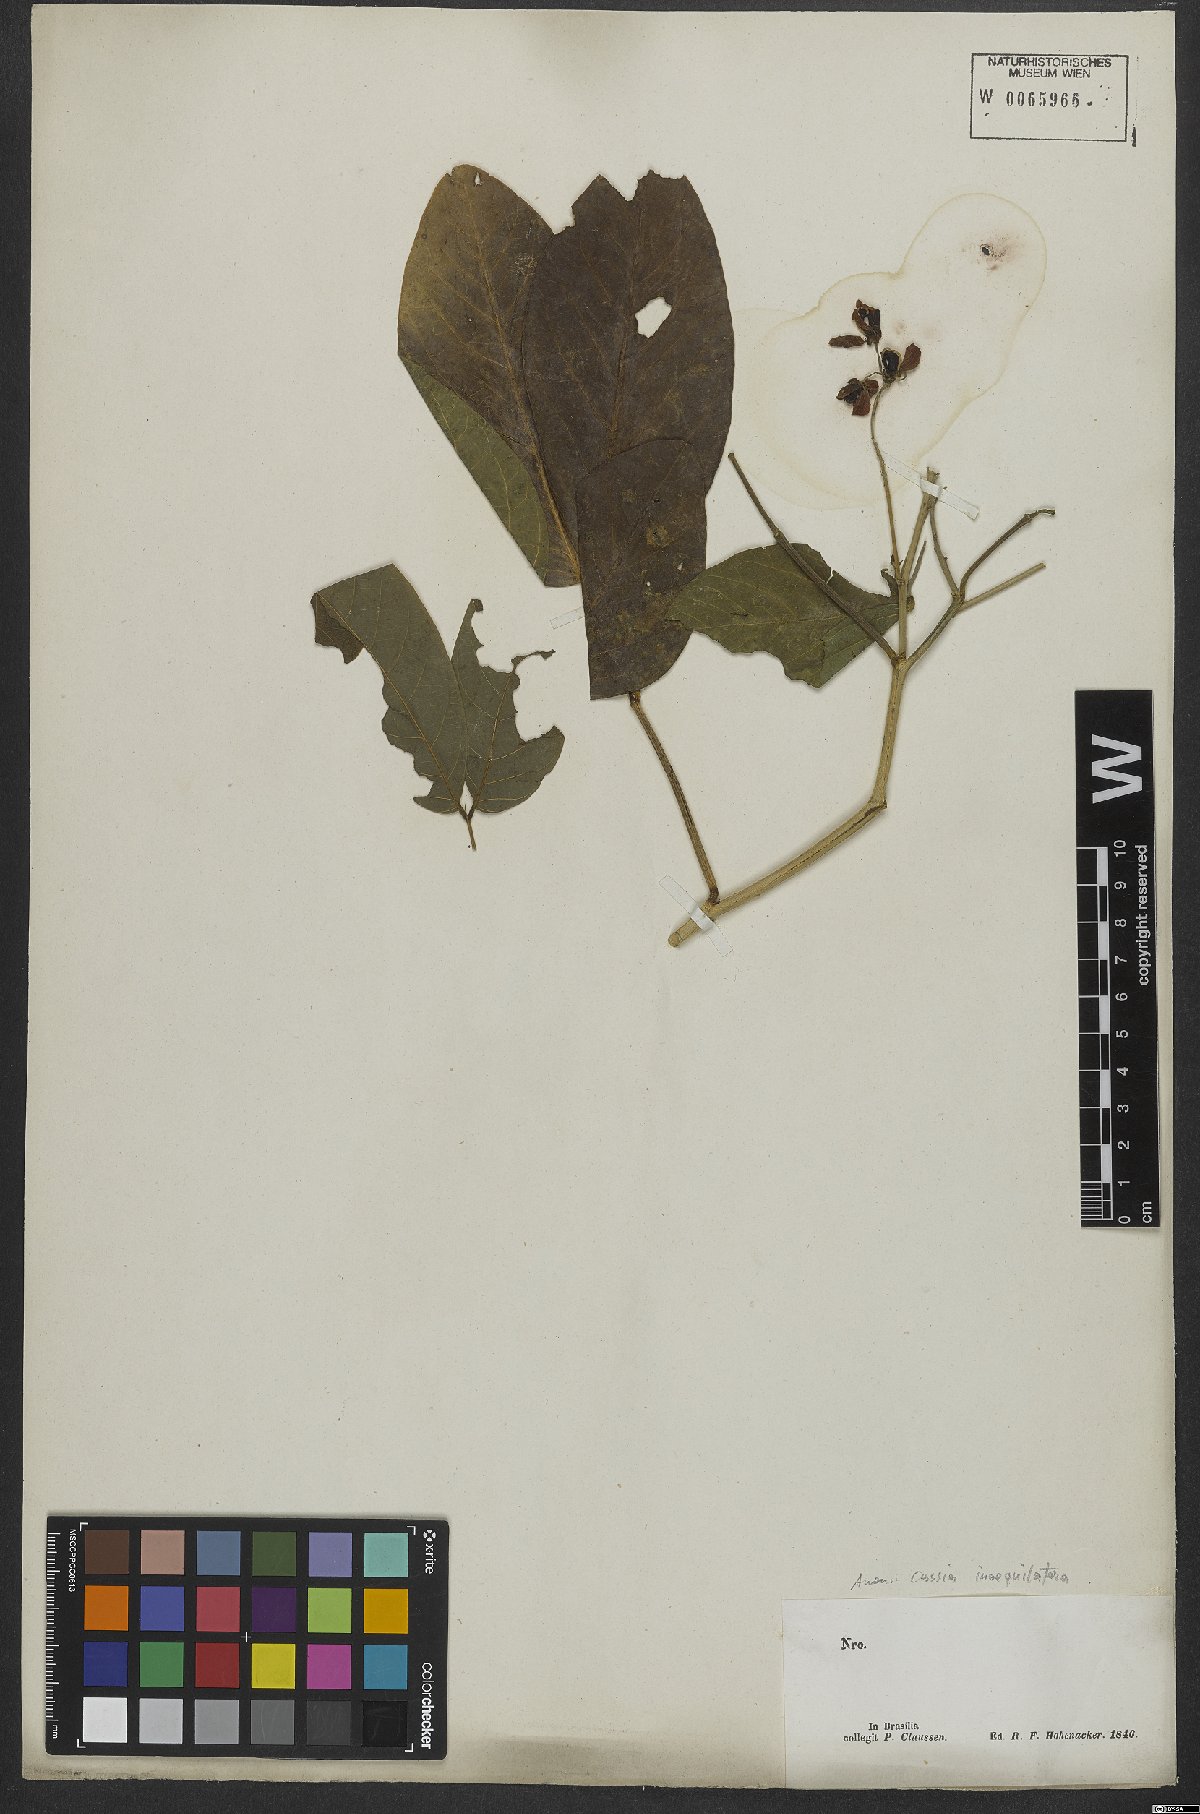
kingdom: Plantae
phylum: Tracheophyta
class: Magnoliopsida
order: Fabales
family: Fabaceae
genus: Senna
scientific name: Senna bacillaris
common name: West indian showertree
